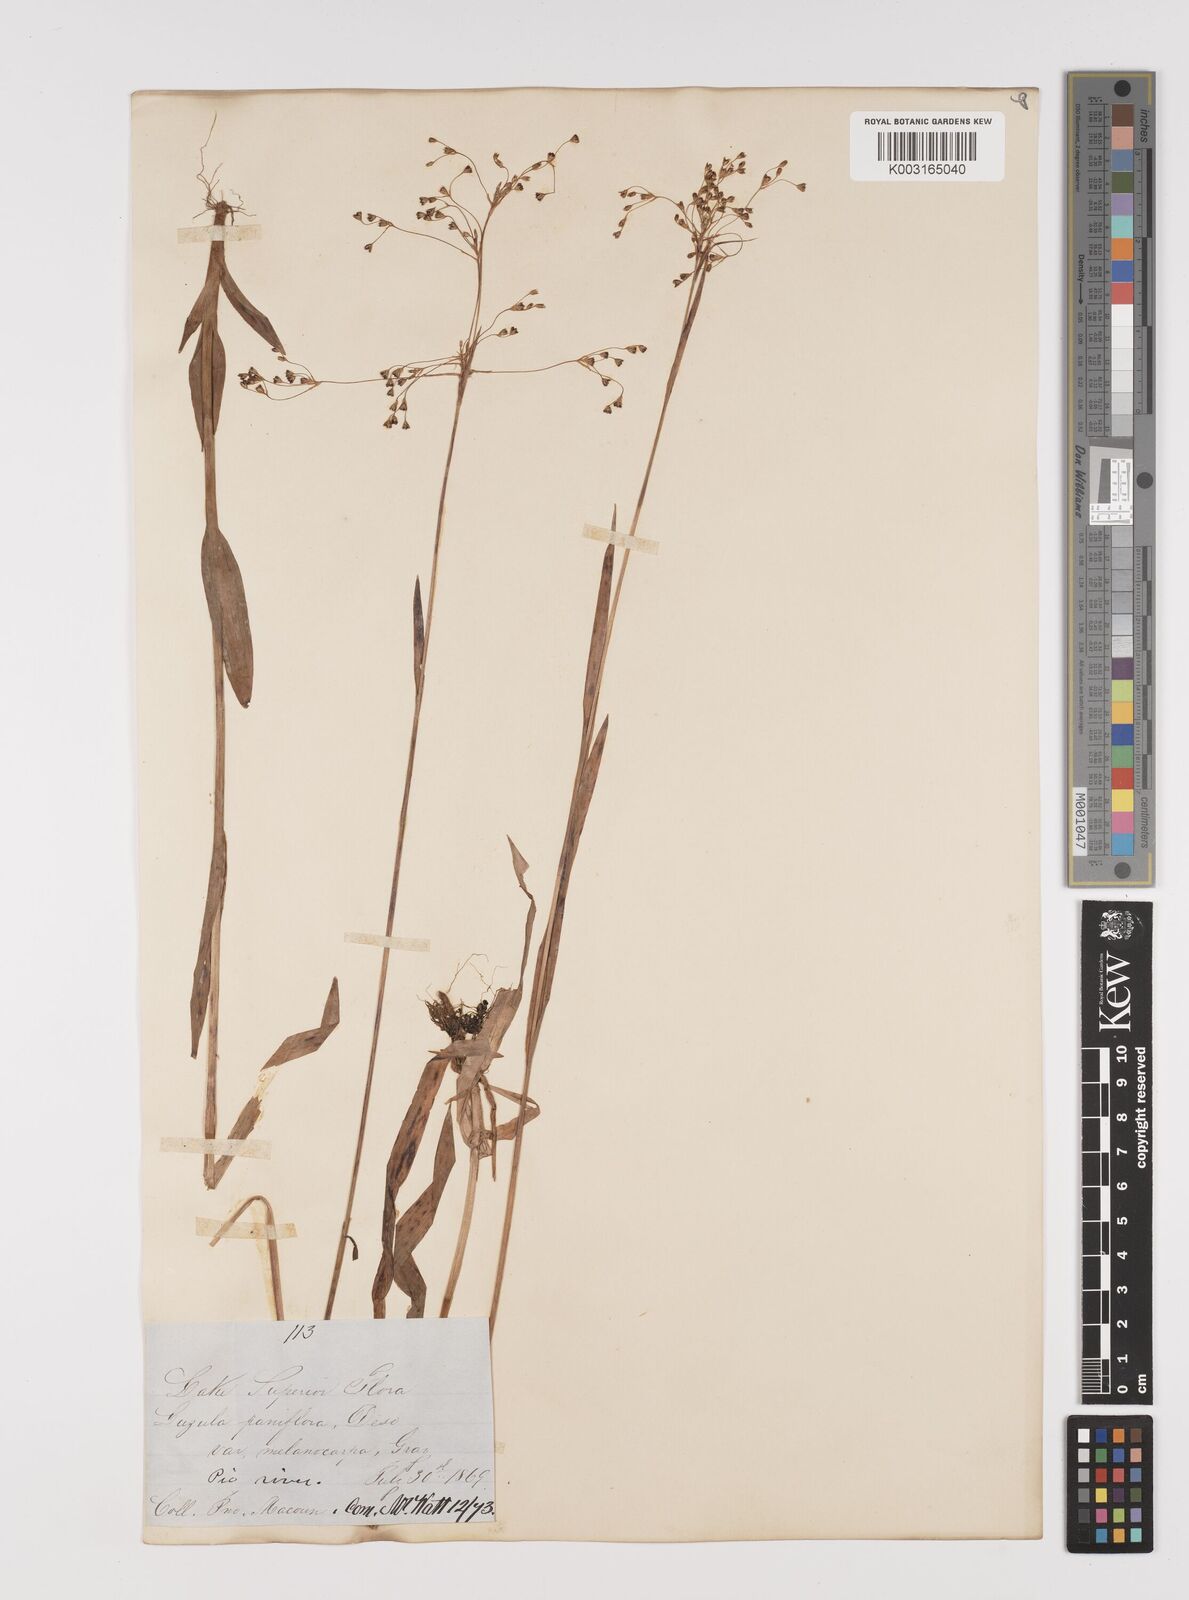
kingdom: Plantae
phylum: Tracheophyta
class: Liliopsida
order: Poales
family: Juncaceae
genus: Luzula
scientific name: Luzula parviflora
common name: Millet woodrush
